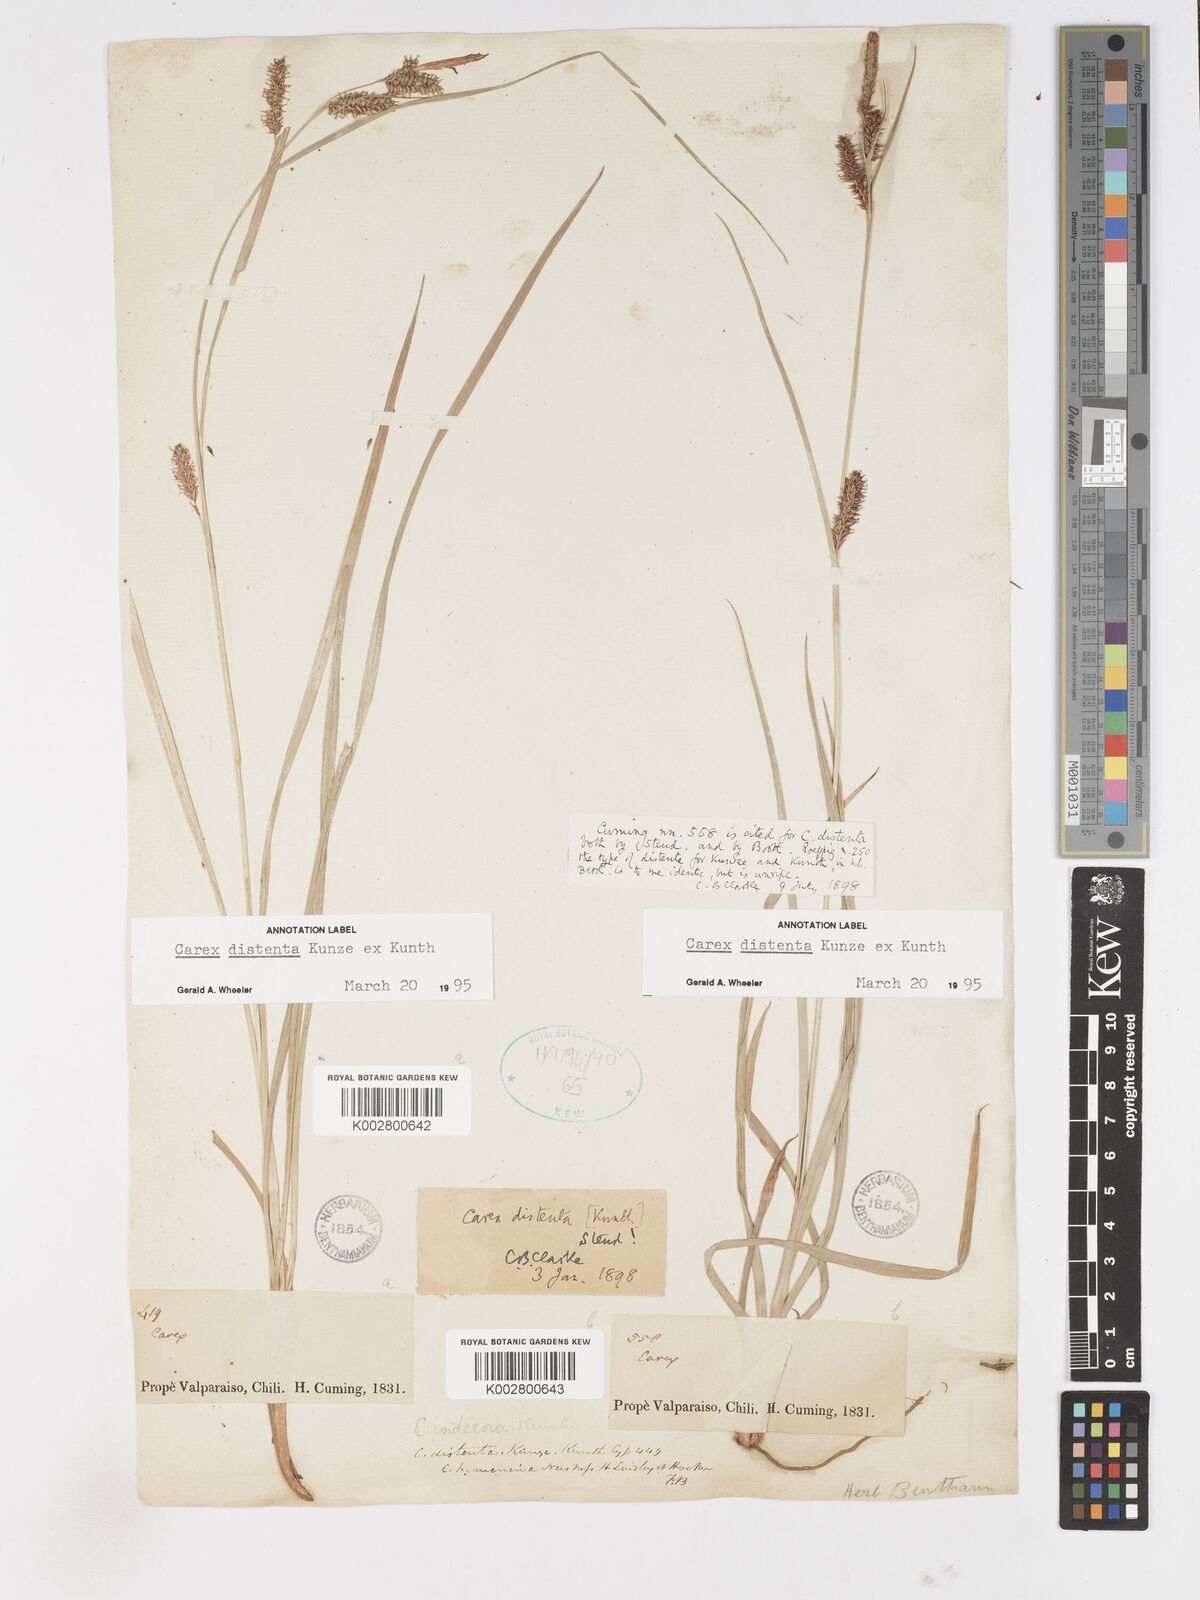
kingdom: Plantae
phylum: Tracheophyta
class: Liliopsida
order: Poales
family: Cyperaceae
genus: Carex
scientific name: Carex fuscula
